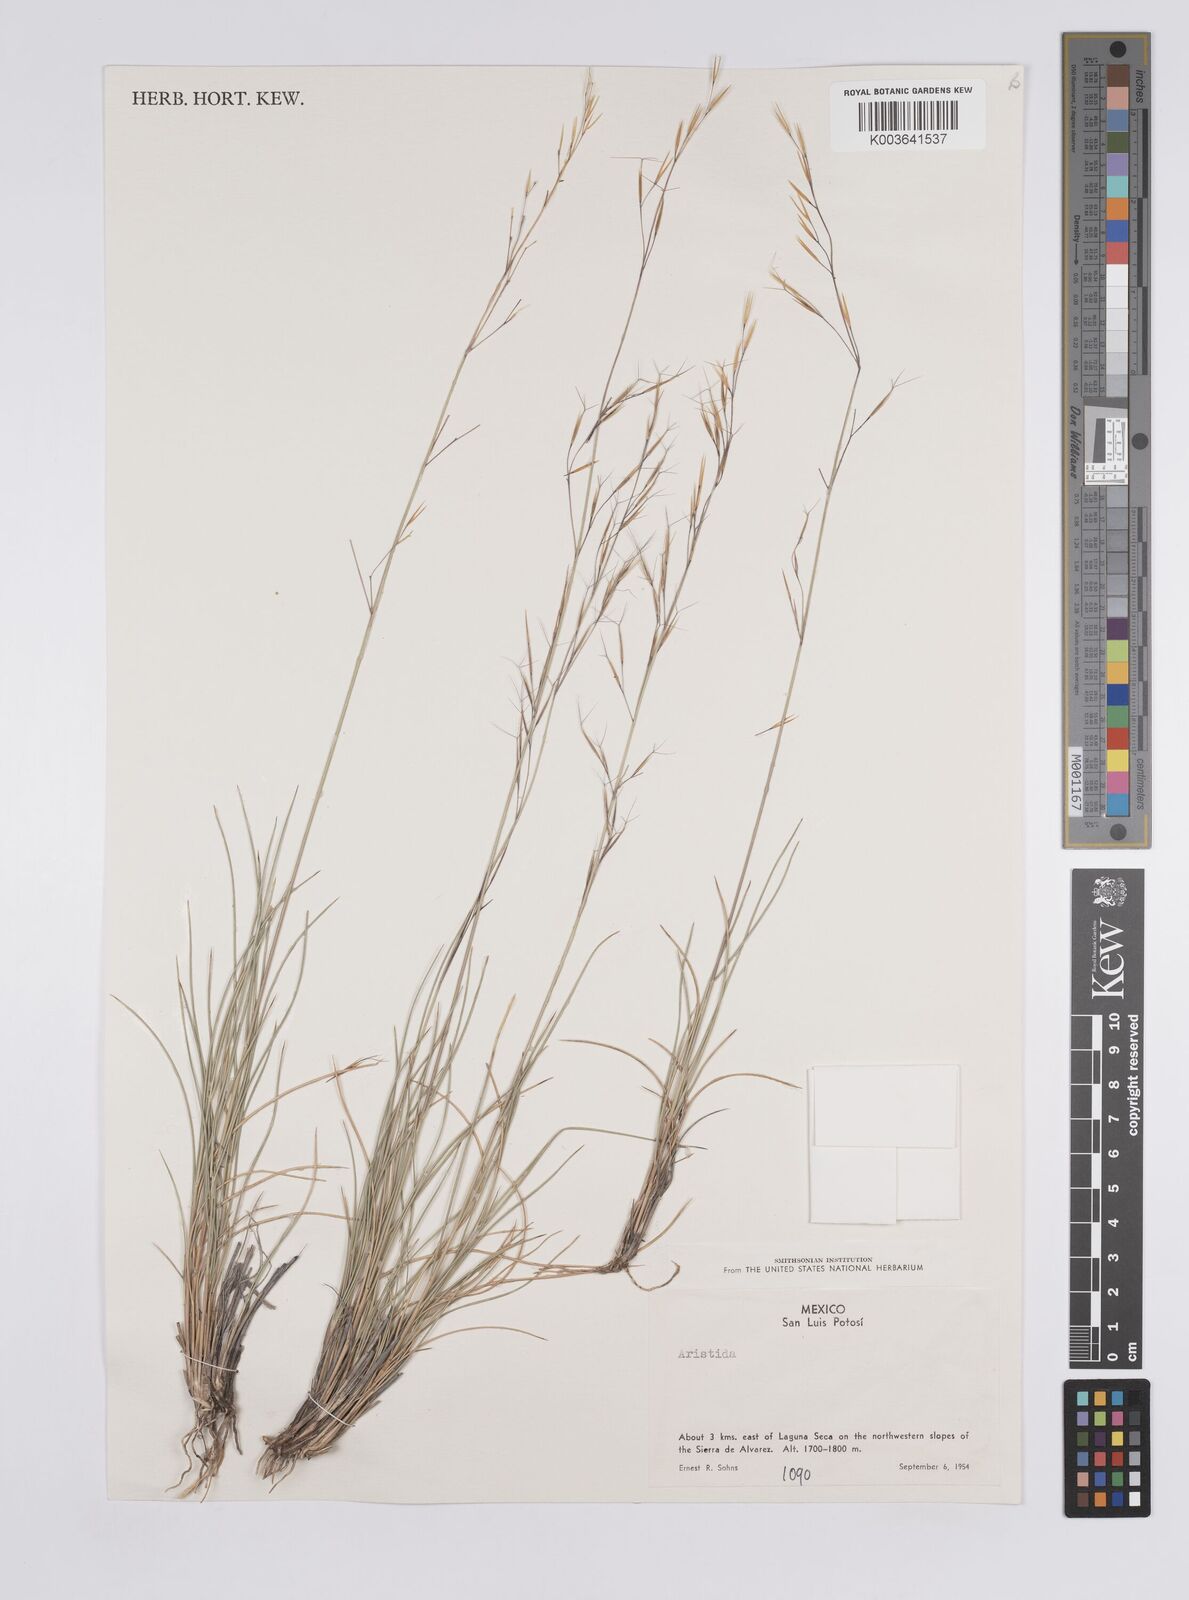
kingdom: Plantae
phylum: Tracheophyta
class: Liliopsida
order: Poales
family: Poaceae
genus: Aristida
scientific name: Aristida
